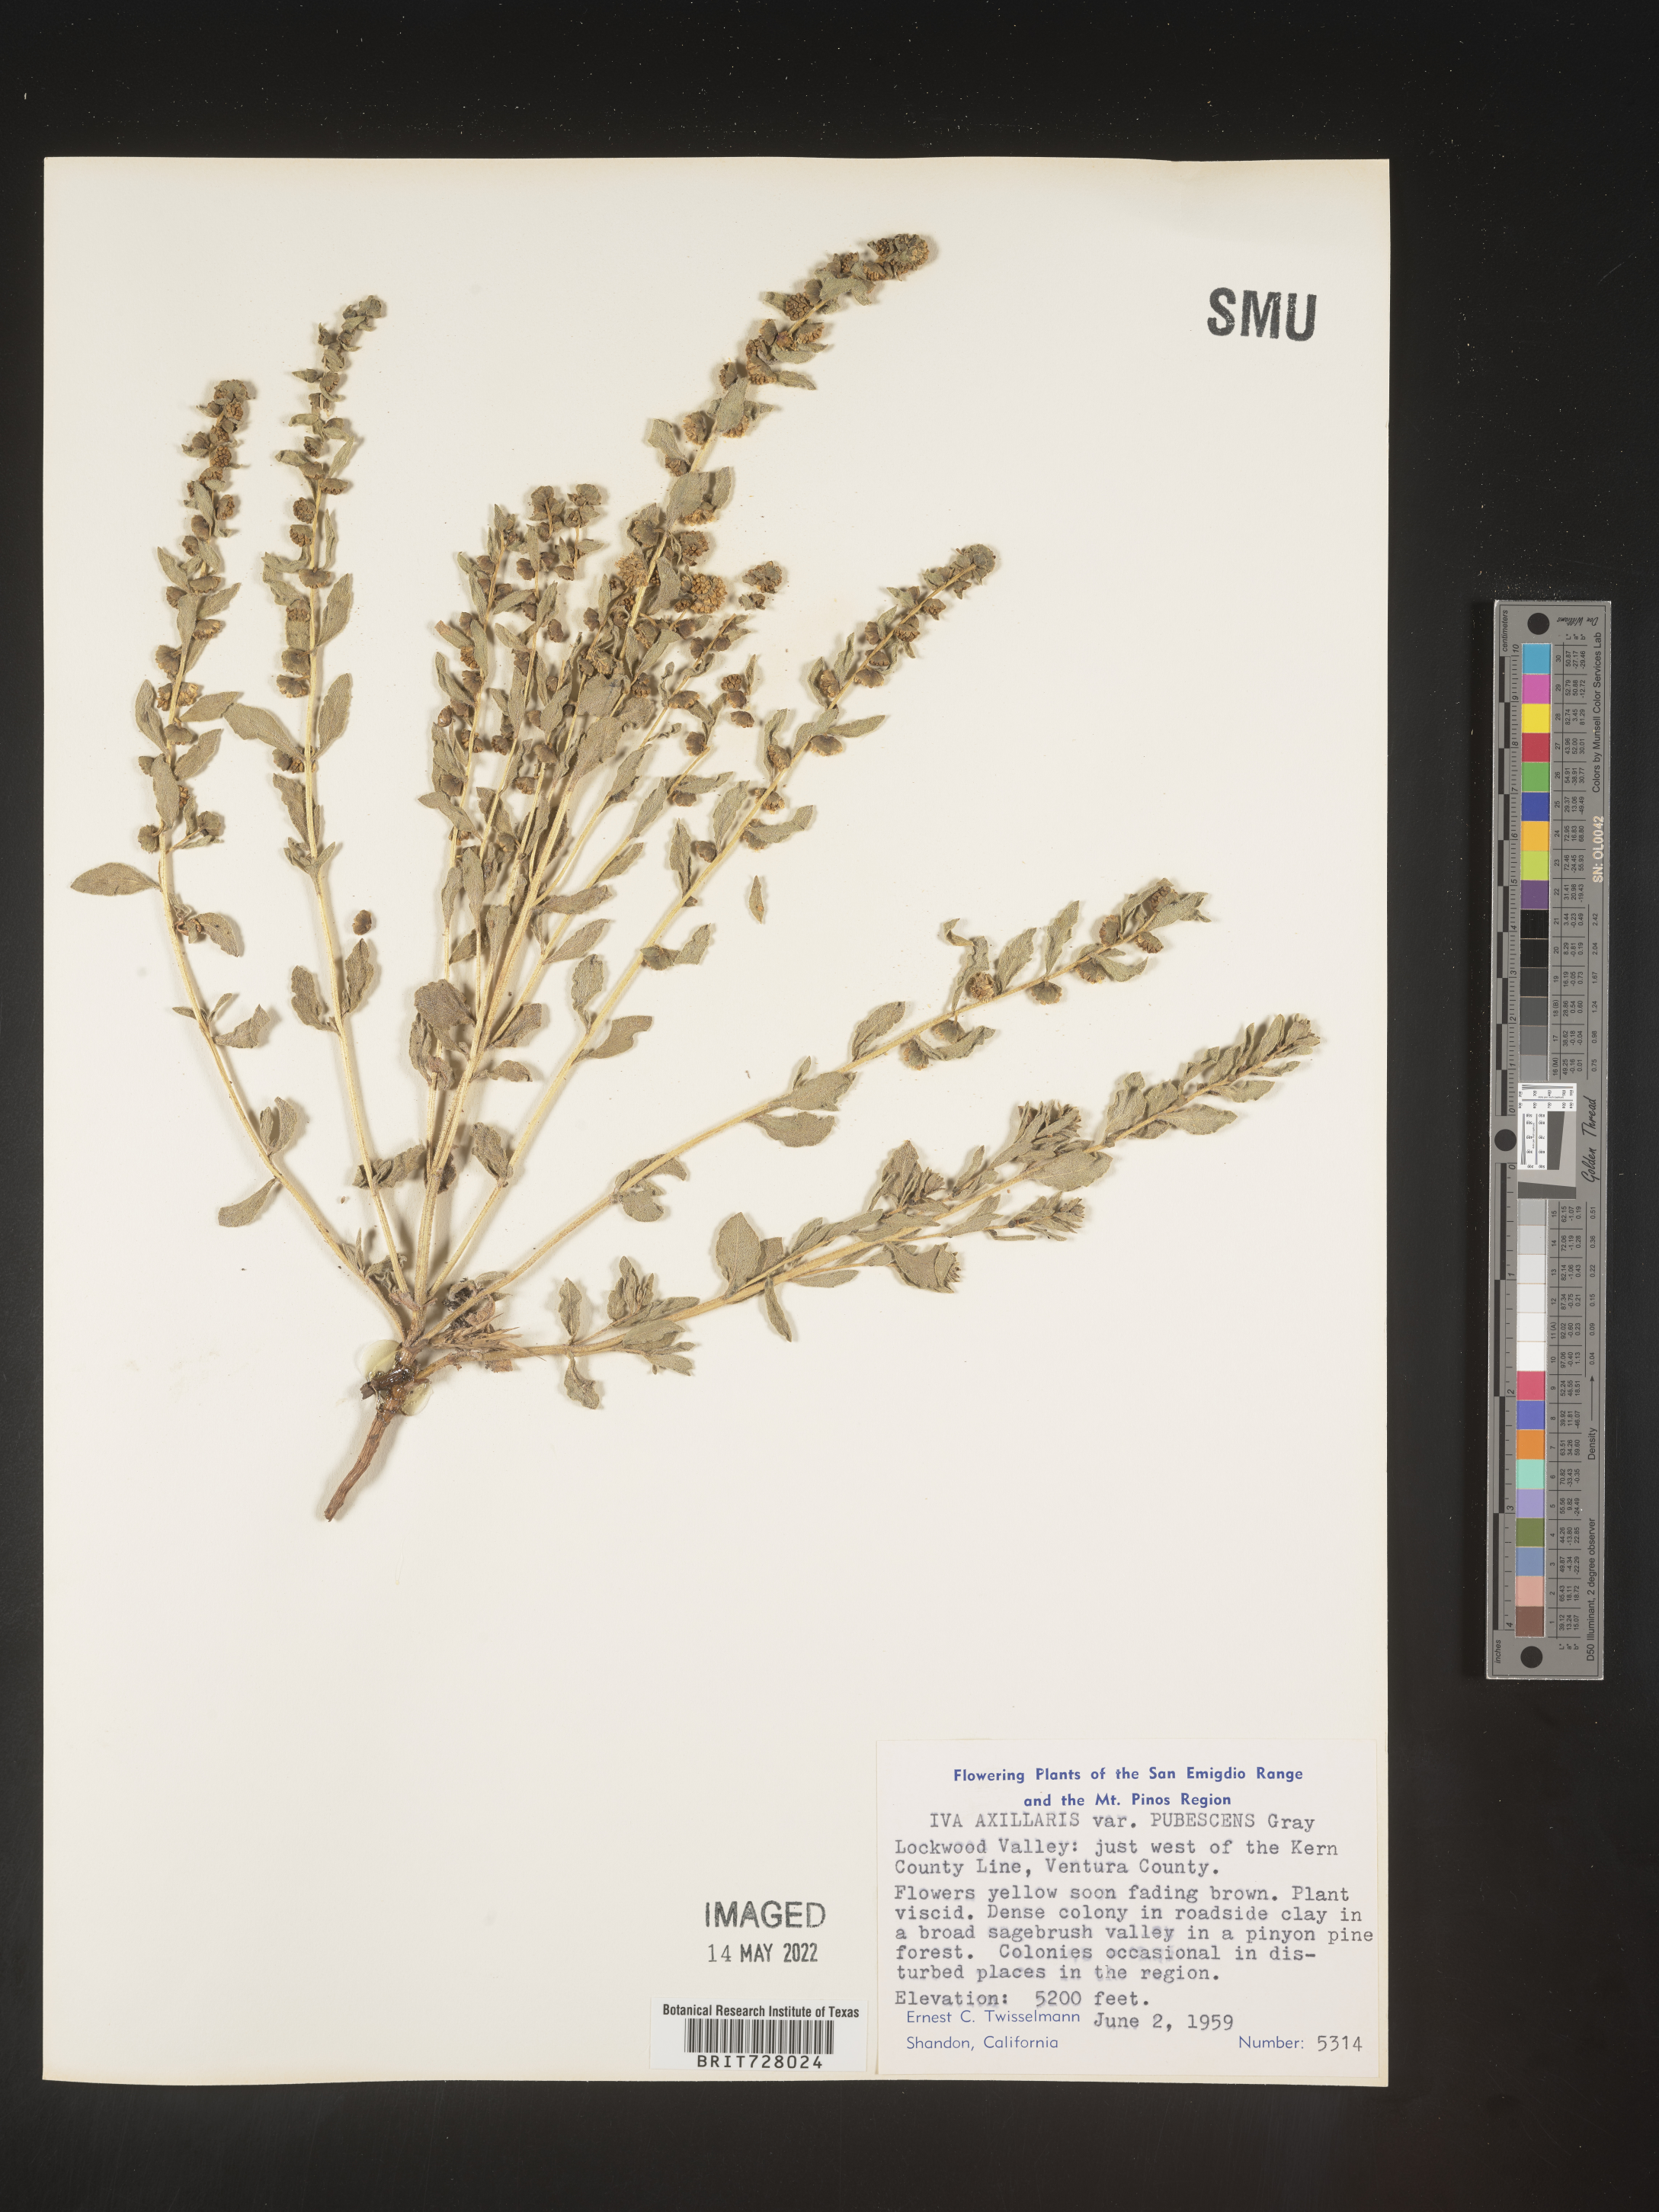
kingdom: Plantae
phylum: Tracheophyta
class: Magnoliopsida
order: Asterales
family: Asteraceae
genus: Iva
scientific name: Iva axillaris
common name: Poverty sumpweed
